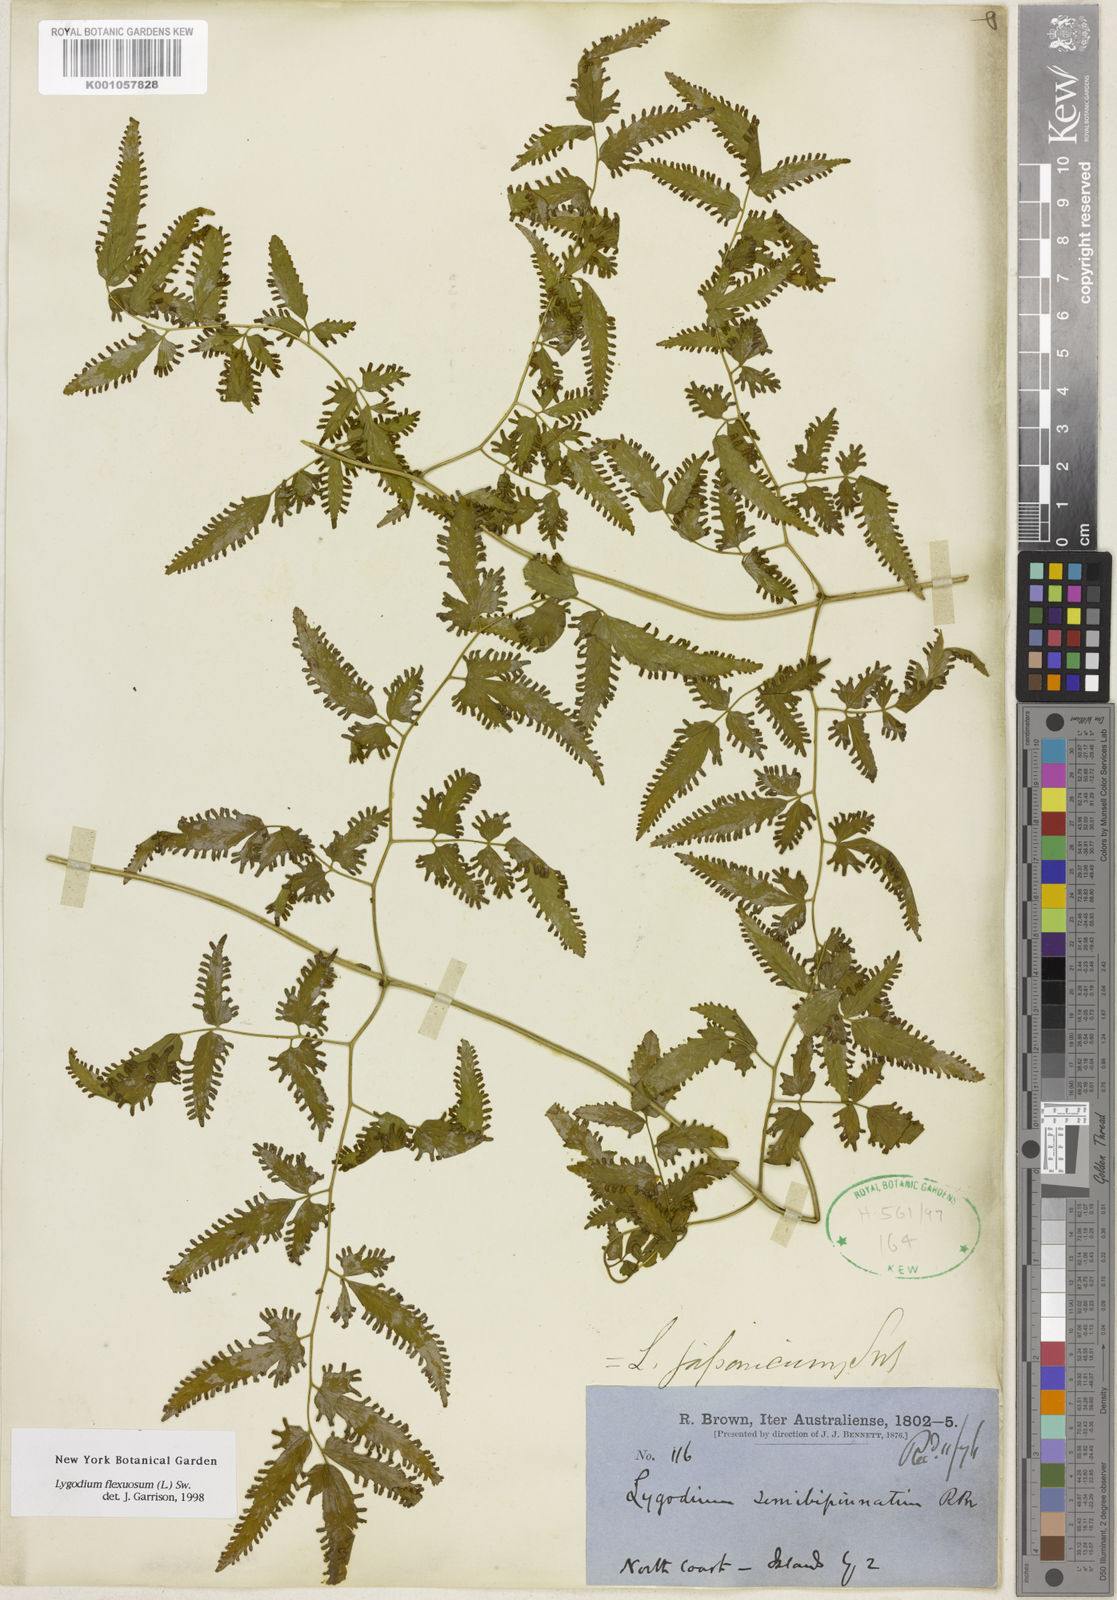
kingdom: Plantae
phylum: Tracheophyta
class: Polypodiopsida
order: Schizaeales
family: Lygodiaceae
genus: Lygodium
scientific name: Lygodium flexuosum
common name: Maidenhair creeper
